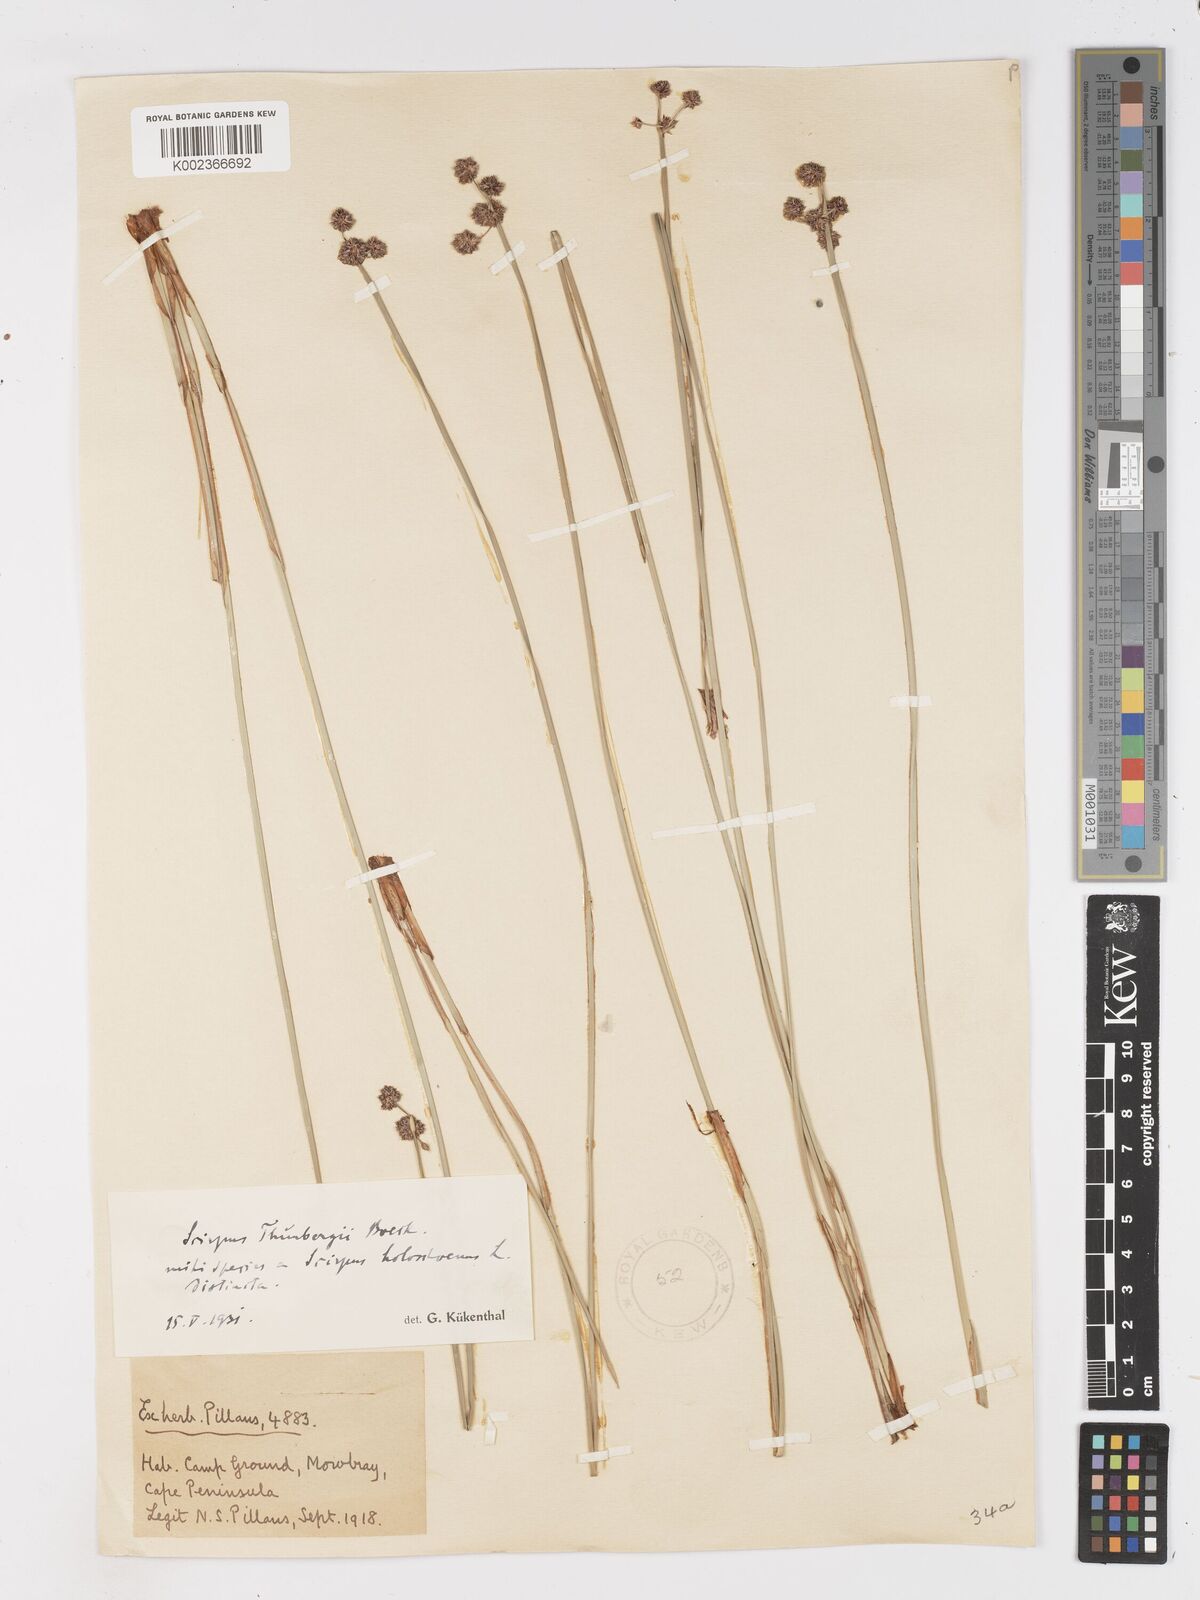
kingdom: Plantae
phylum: Tracheophyta
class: Liliopsida
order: Poales
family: Cyperaceae
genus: Scirpoides
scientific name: Scirpoides holoschoenus
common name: Round-headed club-rush
